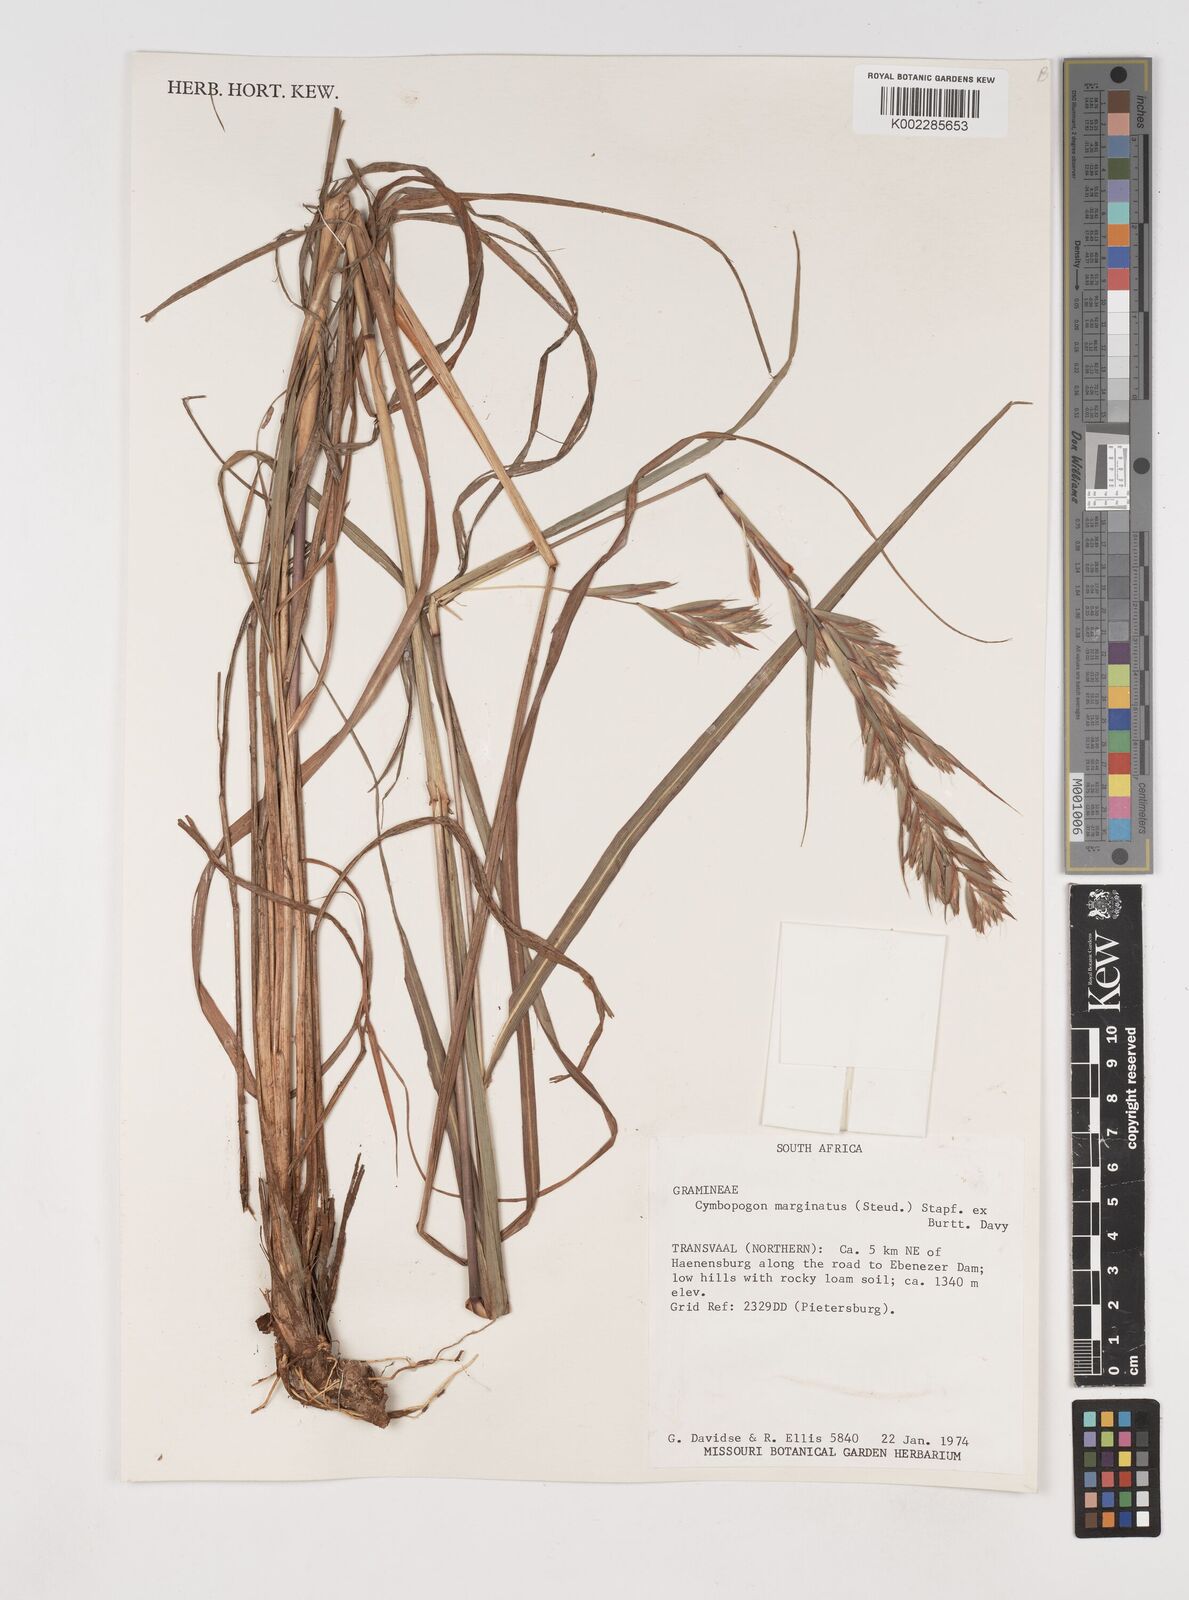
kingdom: Plantae
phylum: Tracheophyta
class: Liliopsida
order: Poales
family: Poaceae
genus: Cymbopogon
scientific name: Cymbopogon marginatus
